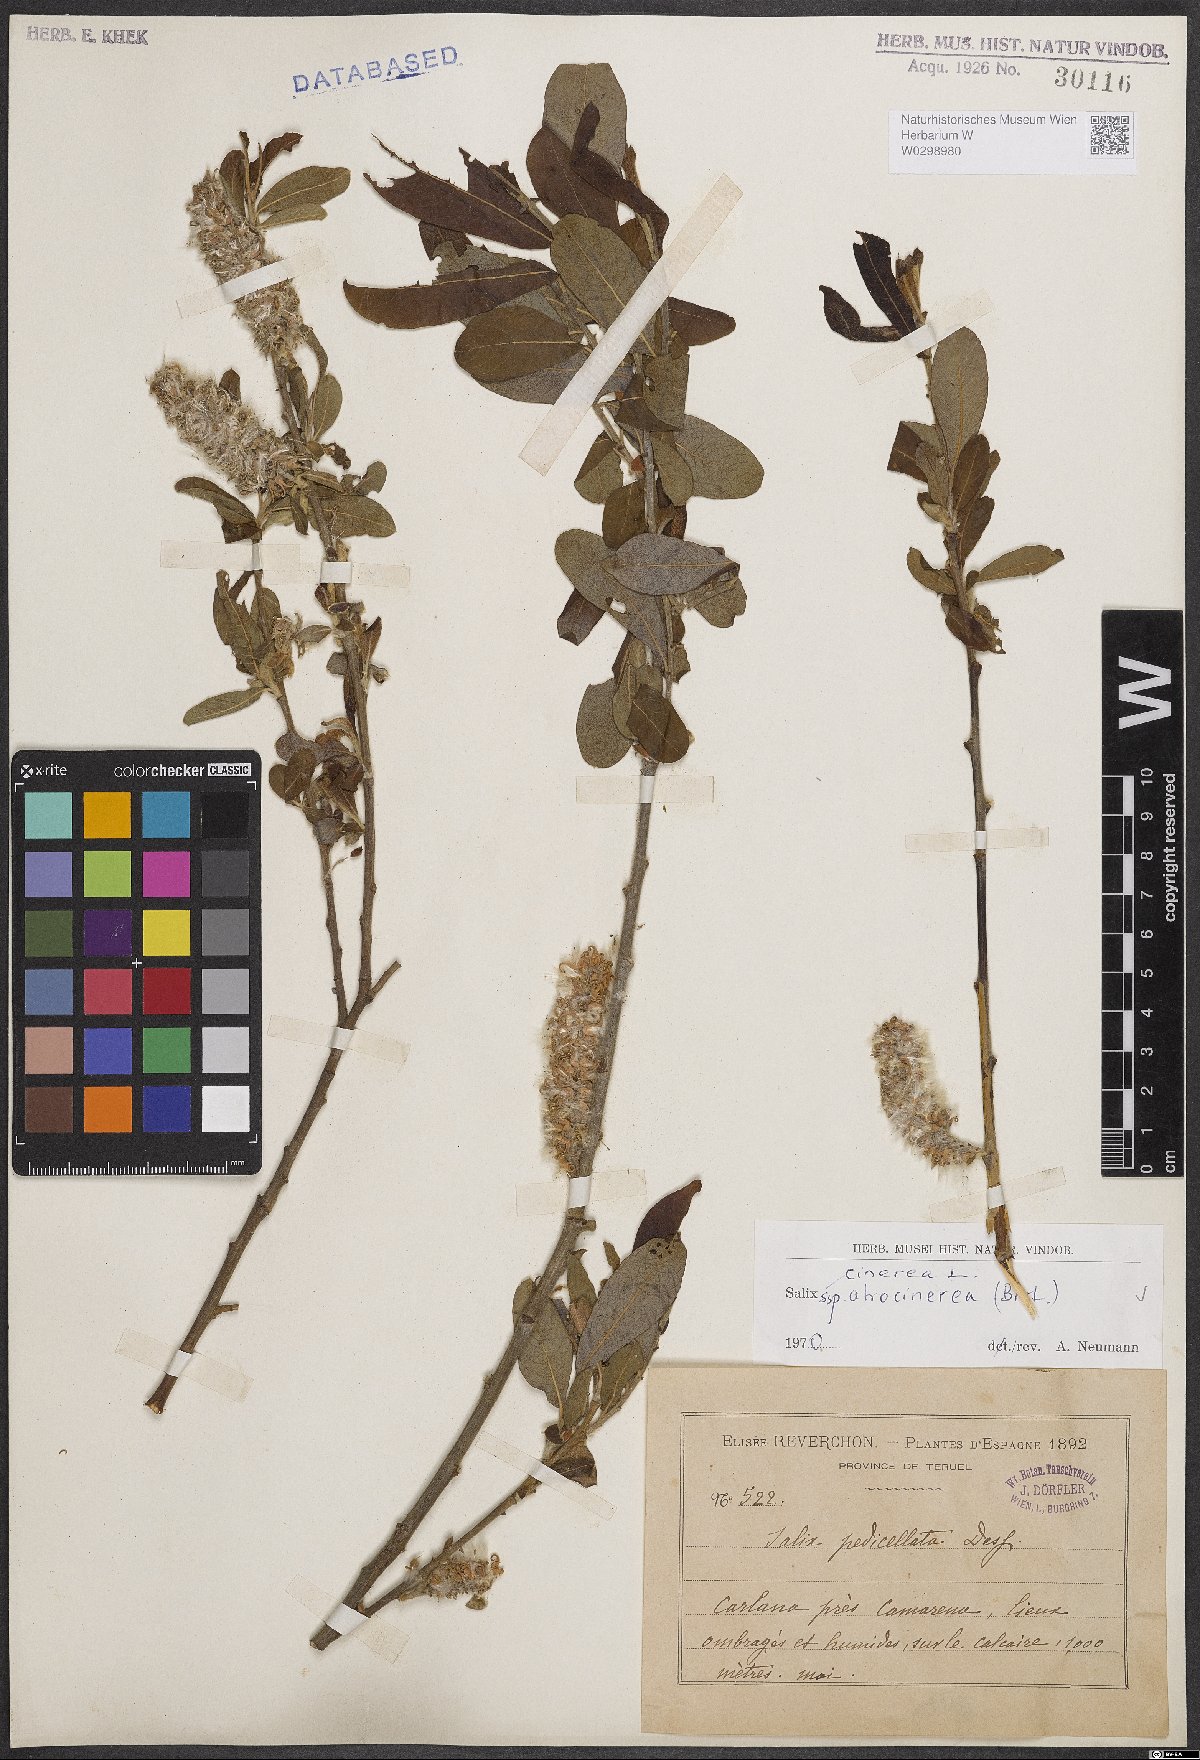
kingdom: Plantae
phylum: Tracheophyta
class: Magnoliopsida
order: Malpighiales
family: Salicaceae
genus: Salix
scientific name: Salix atrocinerea
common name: Rusty willow
